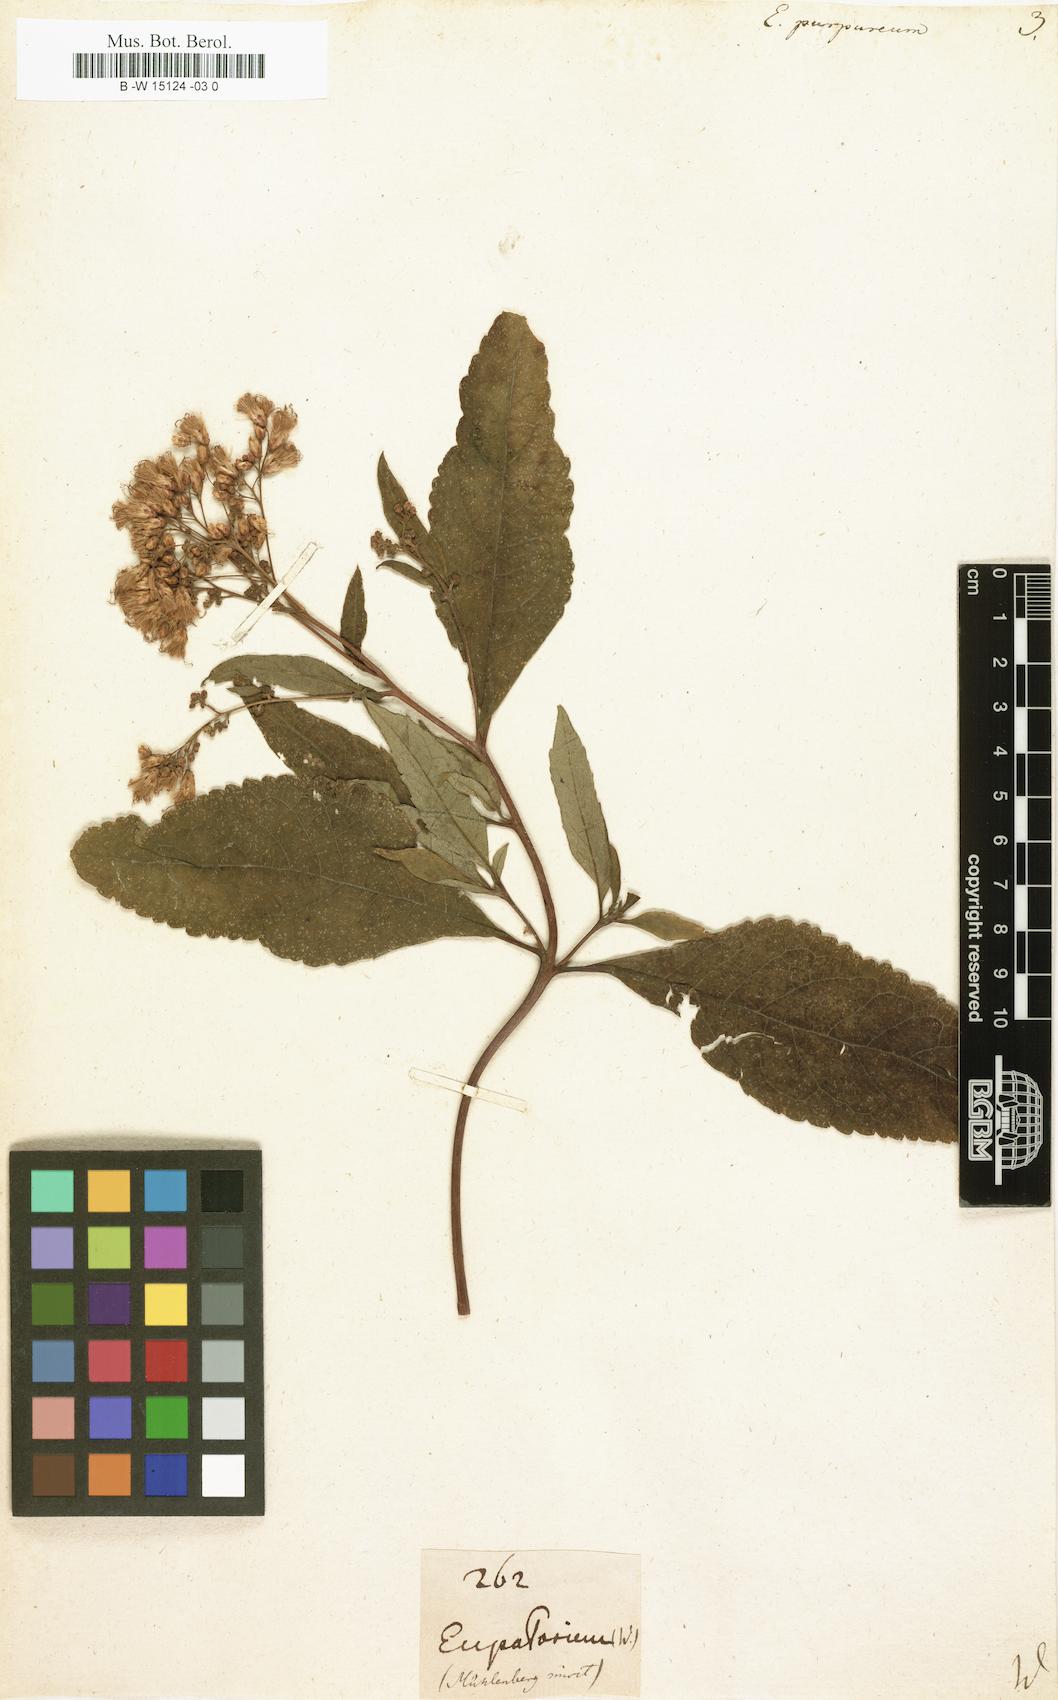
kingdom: Plantae
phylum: Tracheophyta
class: Magnoliopsida
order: Asterales
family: Asteraceae
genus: Eupatorium
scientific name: Eupatorium purpureum
